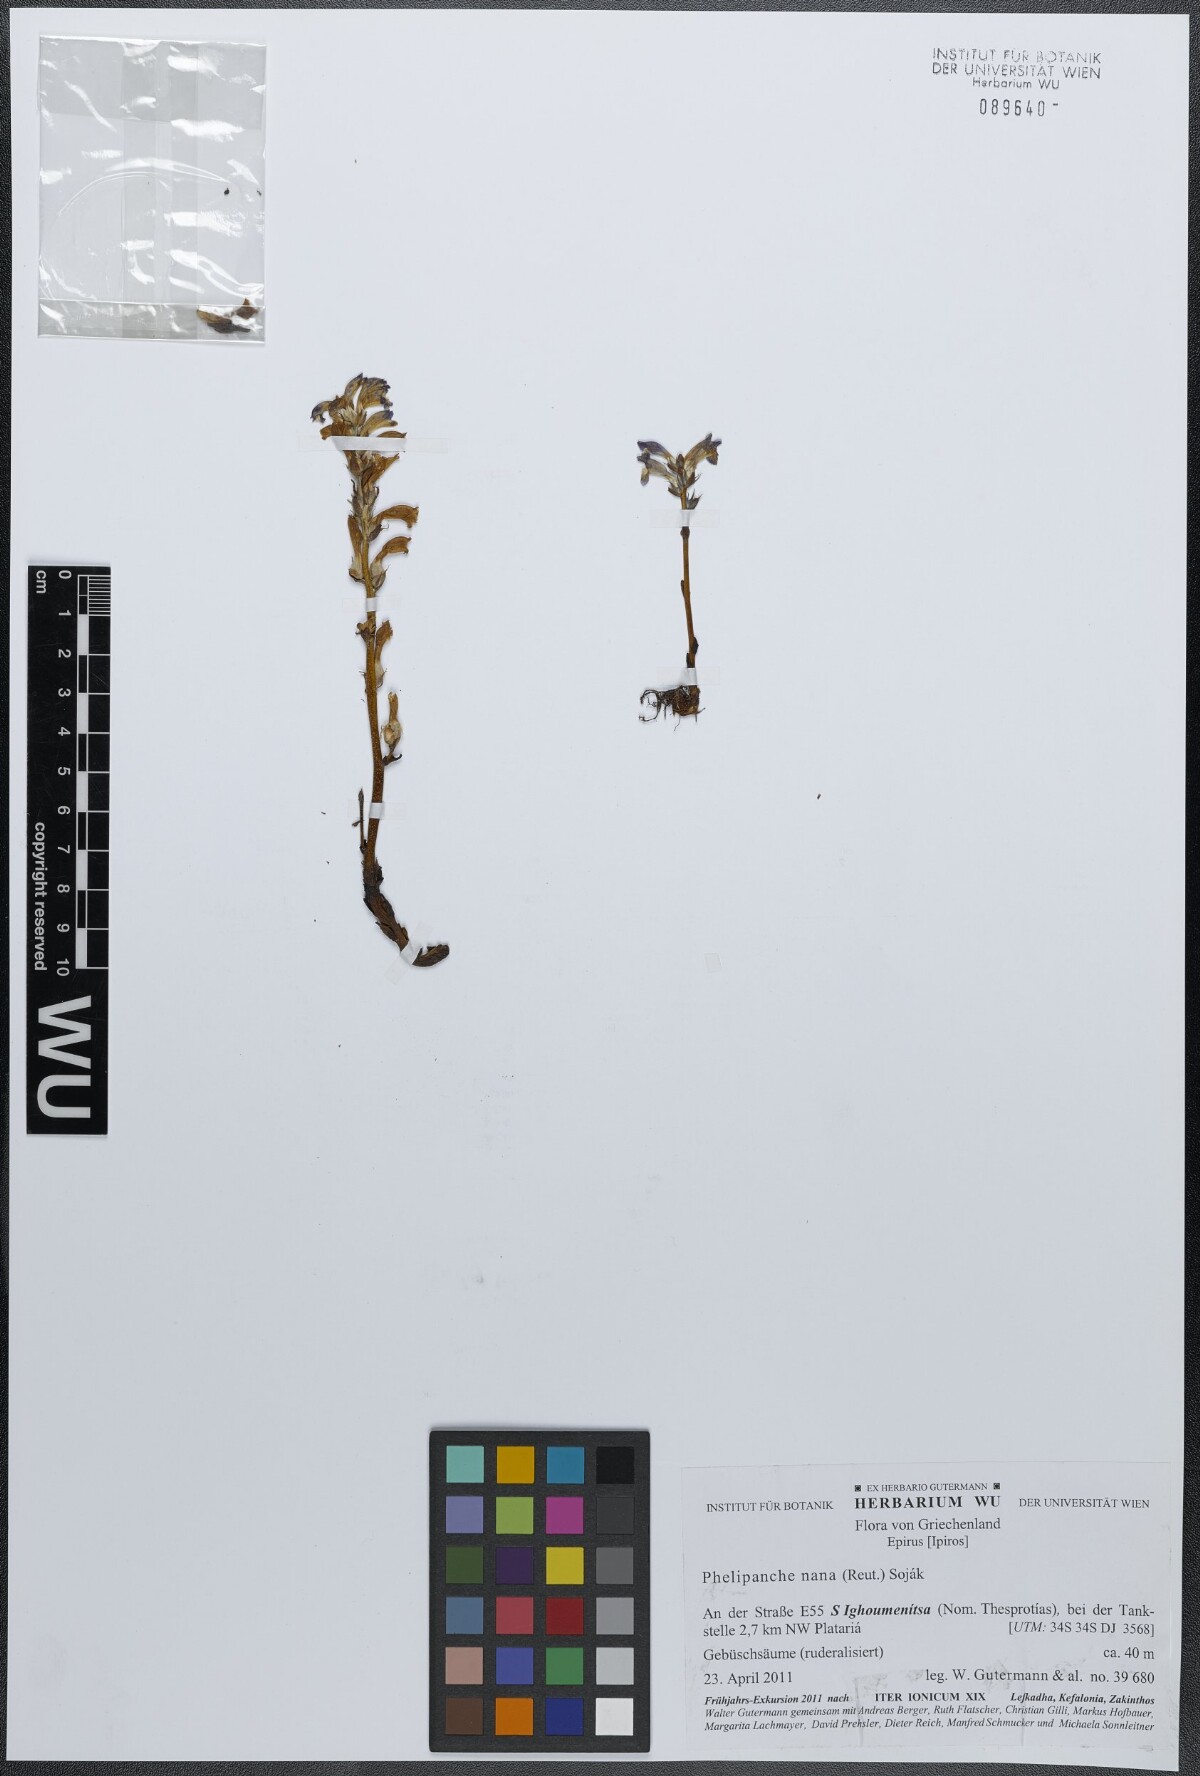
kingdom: Plantae
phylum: Tracheophyta
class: Magnoliopsida
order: Lamiales
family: Orobanchaceae
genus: Phelipanche
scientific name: Phelipanche mutelii
